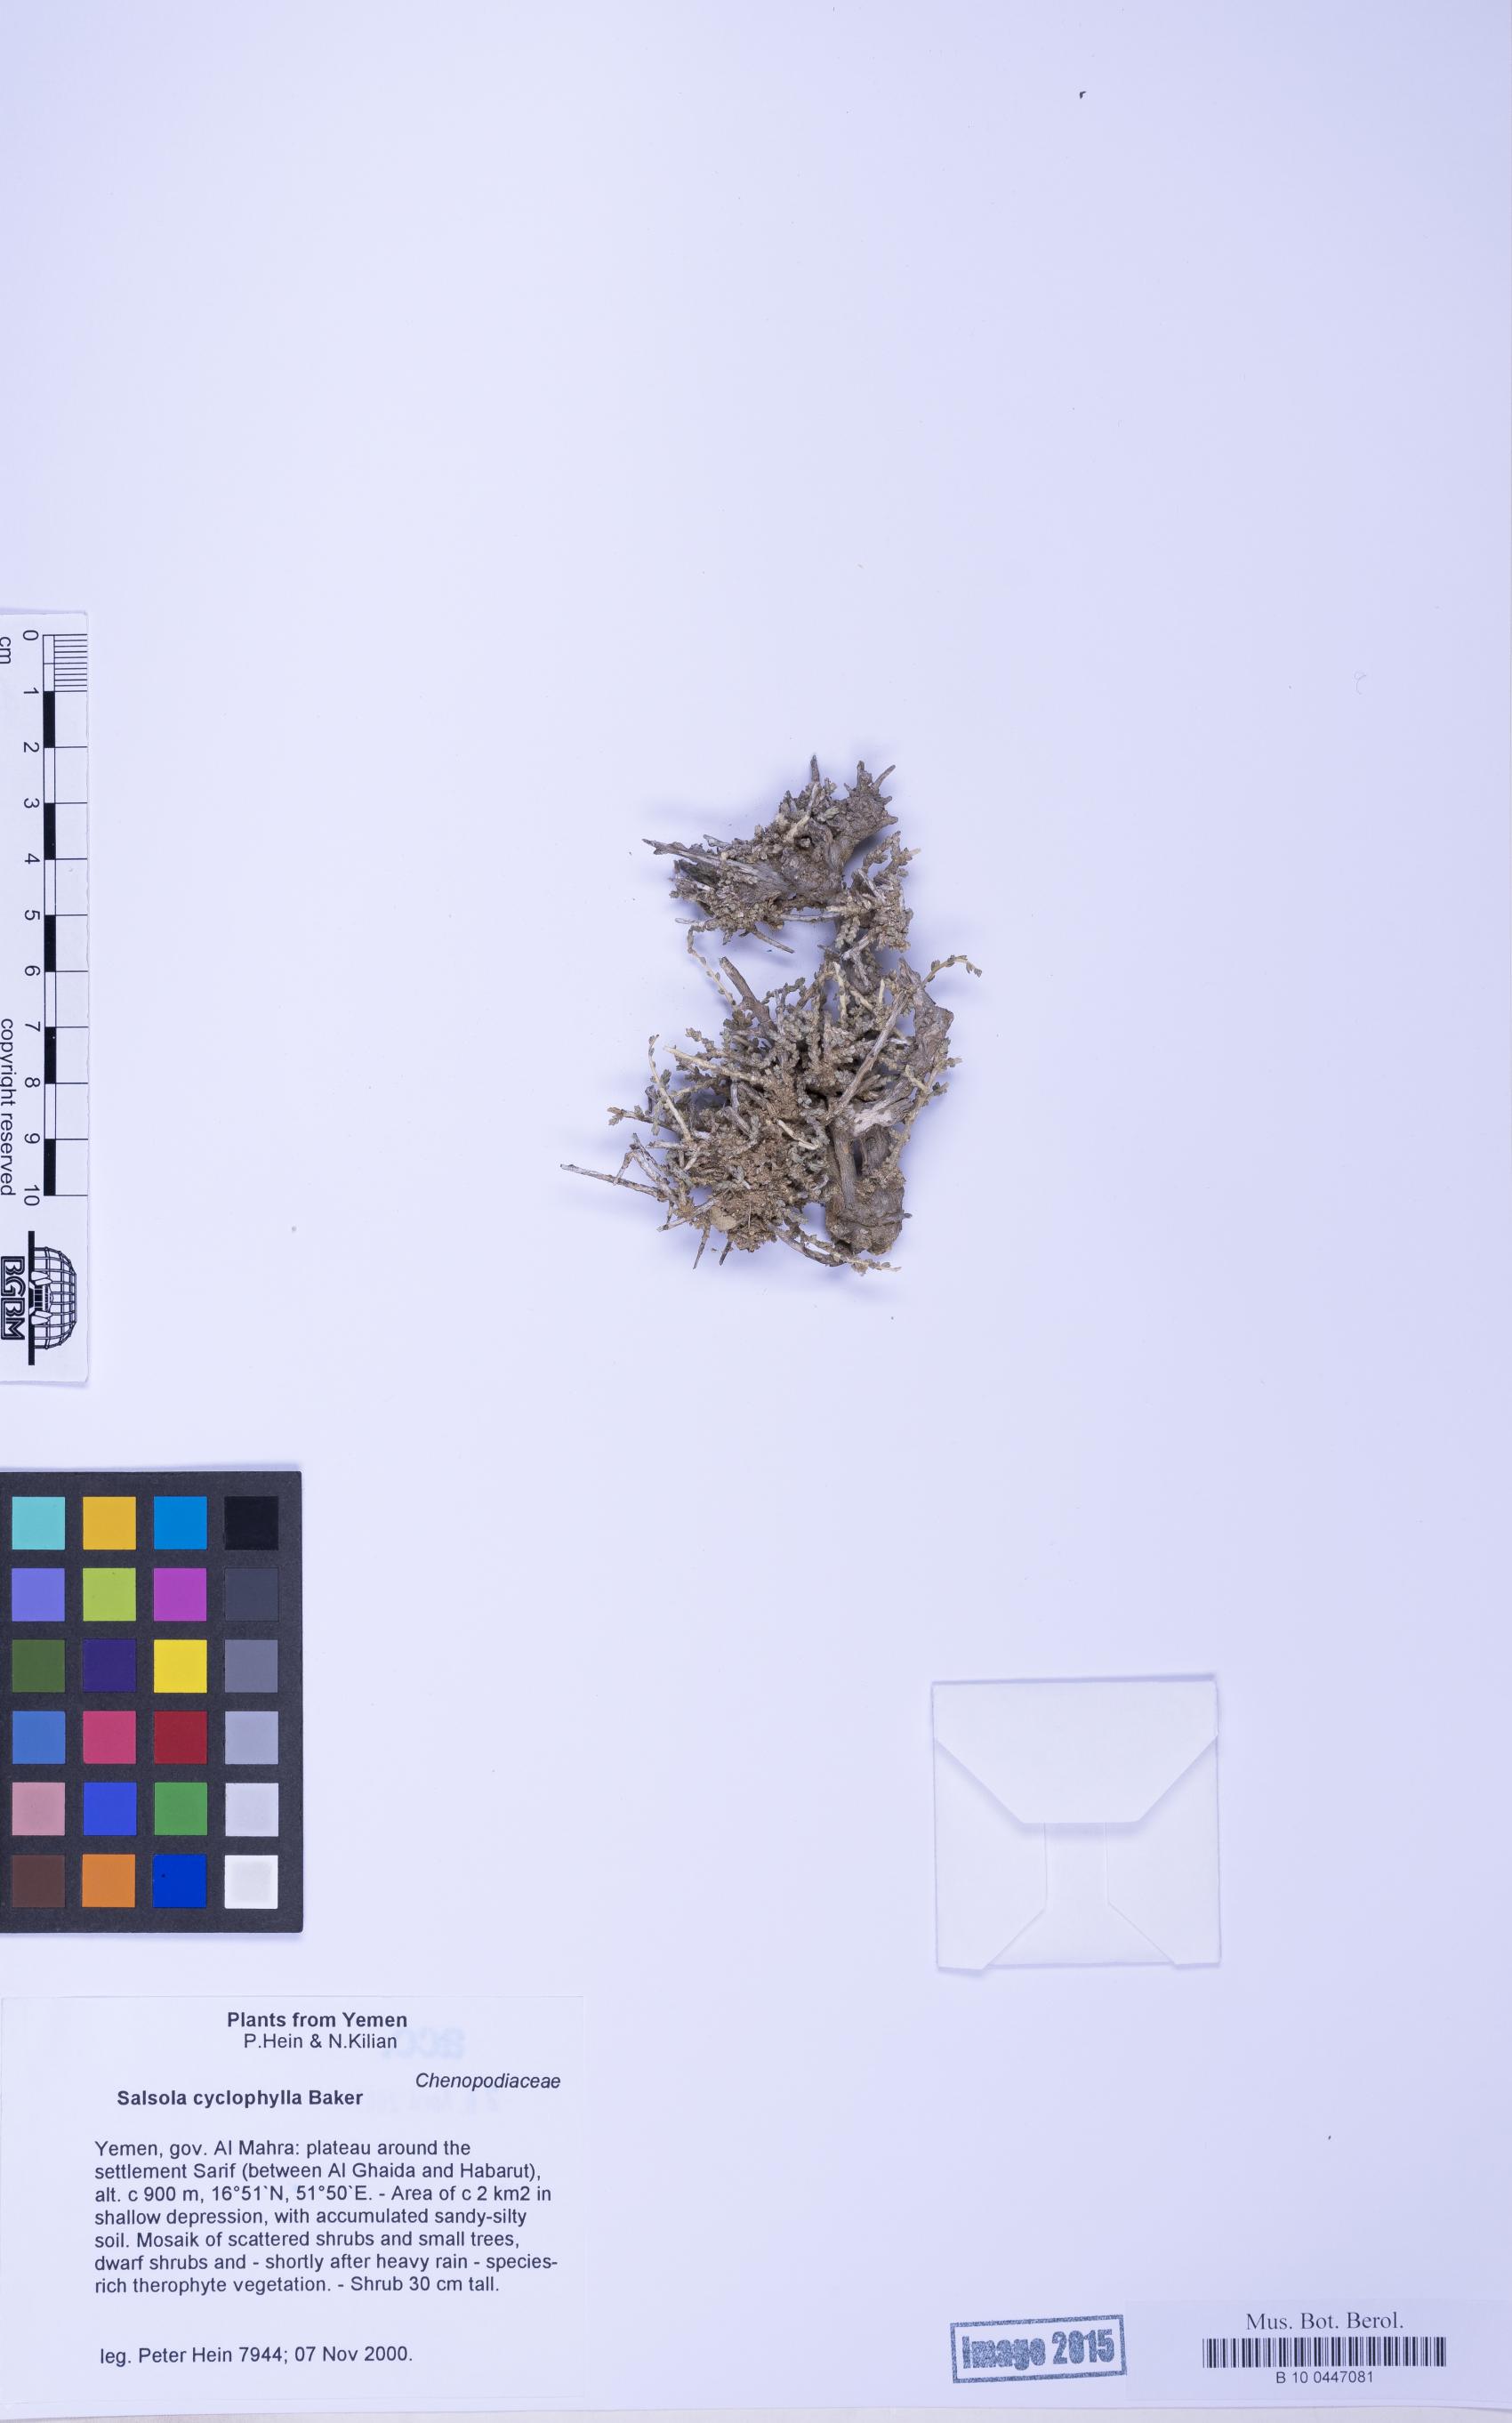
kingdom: Plantae
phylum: Tracheophyta
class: Magnoliopsida
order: Caryophyllales
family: Amaranthaceae
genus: Caroxylon
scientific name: Caroxylon cyclophyllum
